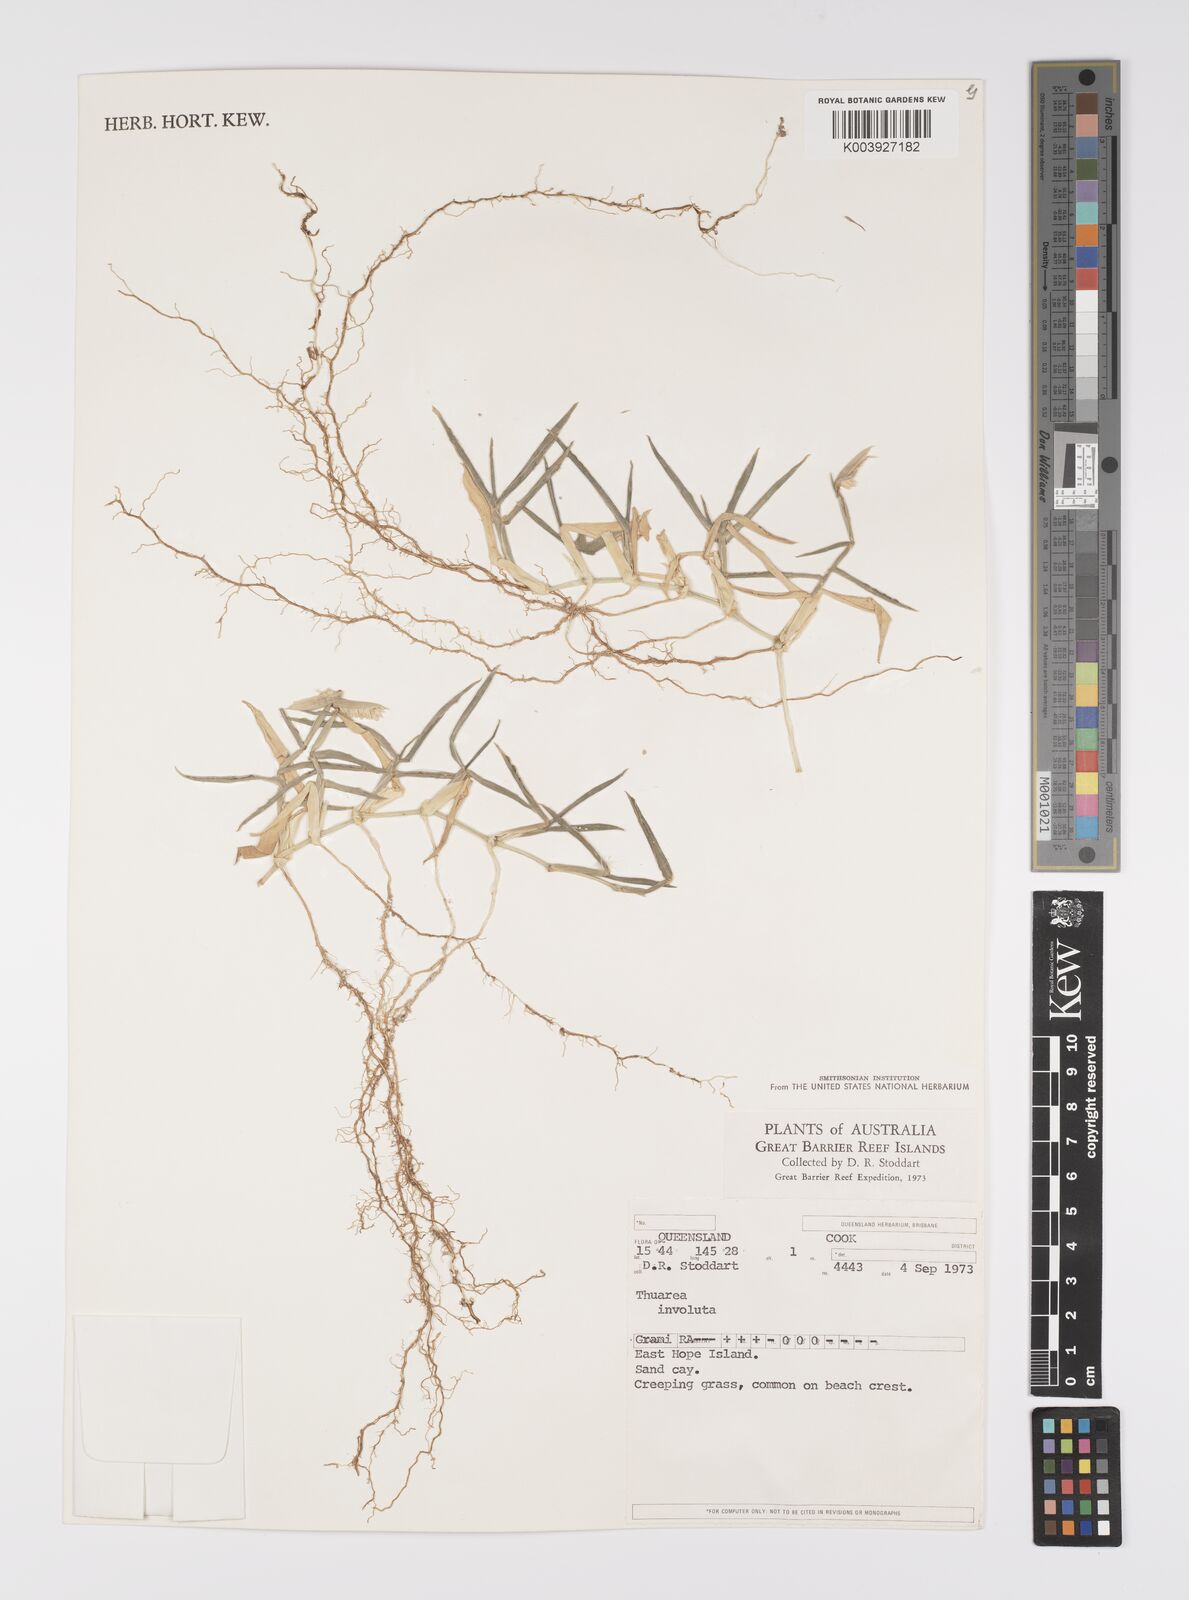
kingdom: Plantae
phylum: Tracheophyta
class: Liliopsida
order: Poales
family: Poaceae
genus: Thuarea
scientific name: Thuarea involuta
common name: Tropical beach grass
